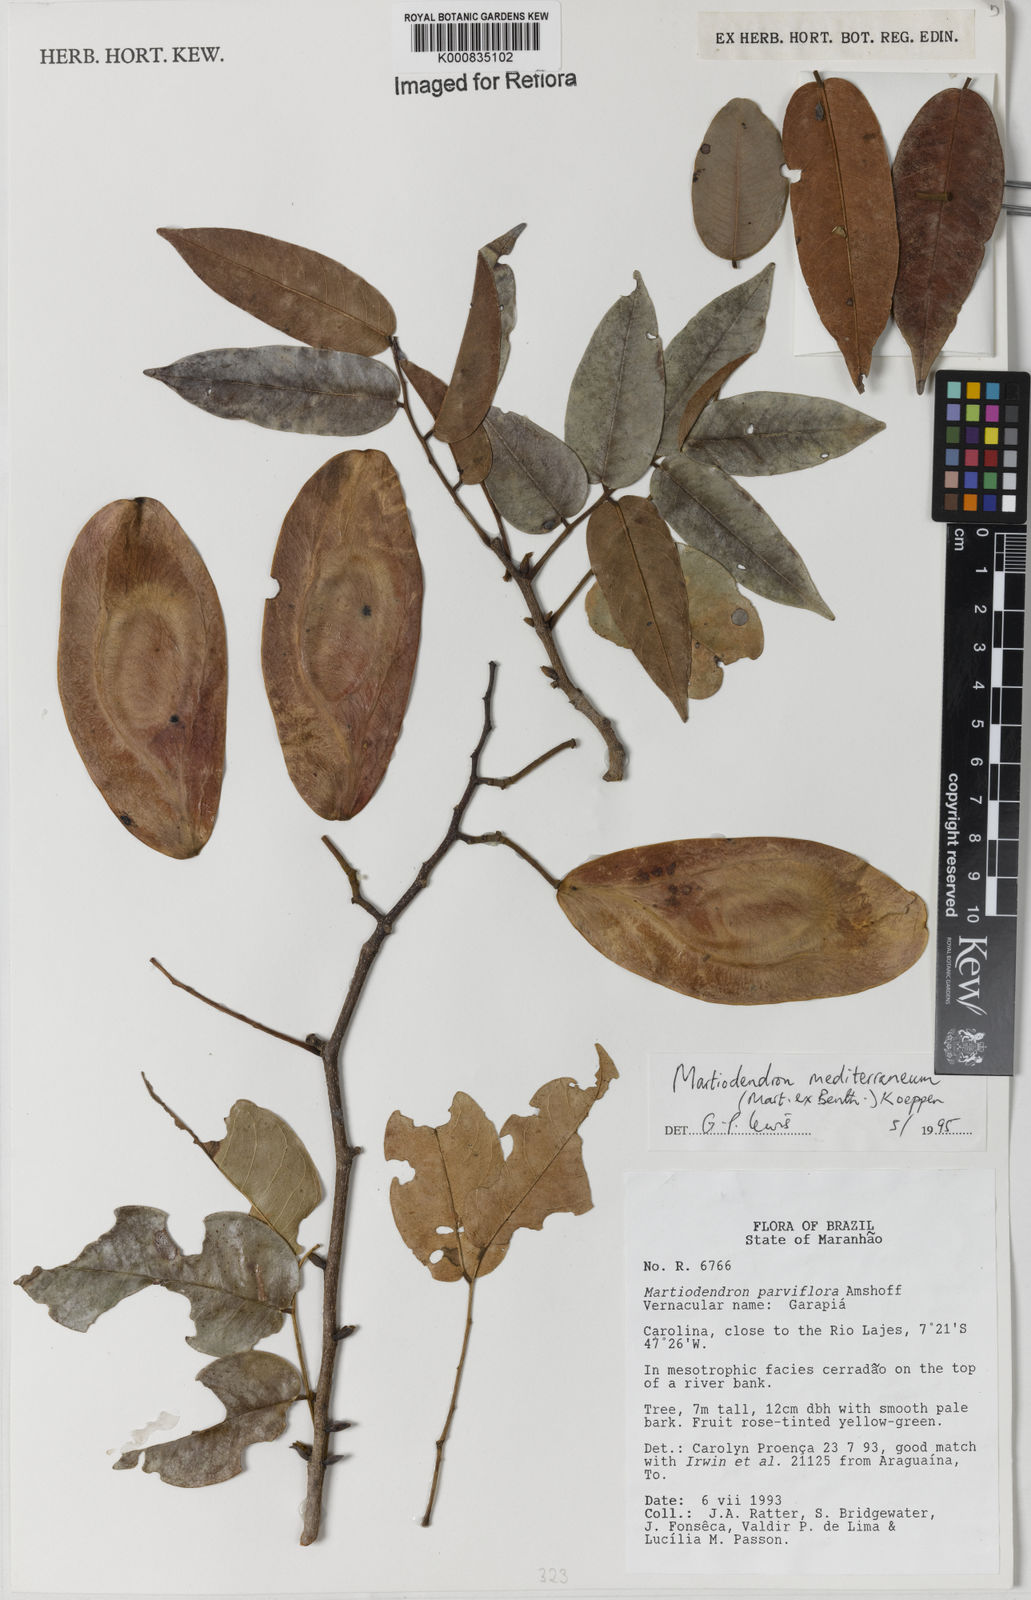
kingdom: Plantae
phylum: Tracheophyta
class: Magnoliopsida
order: Fabales
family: Fabaceae
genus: Martiodendron
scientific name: Martiodendron
